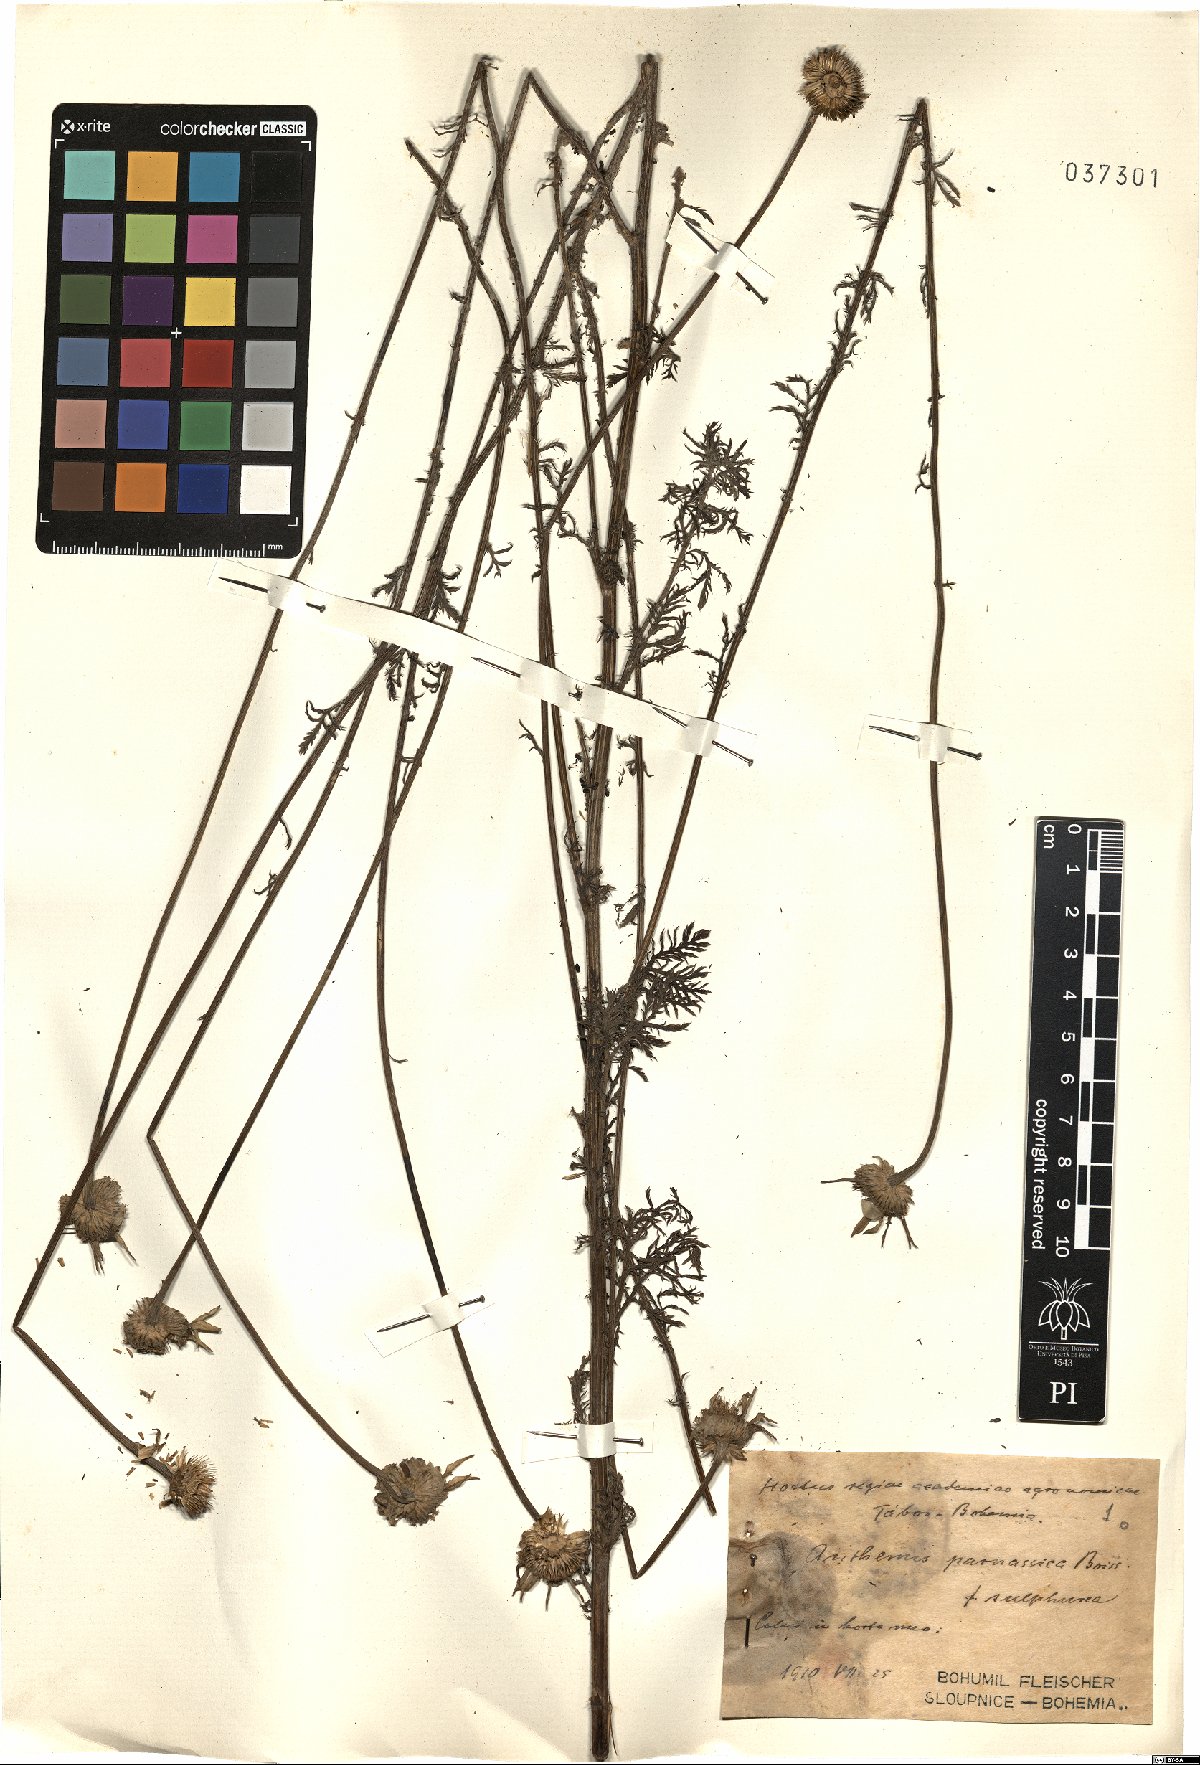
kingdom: Plantae
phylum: Tracheophyta
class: Magnoliopsida
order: Asterales
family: Asteraceae
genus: Cota
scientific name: Cota tinctoria
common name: Golden chamomile
